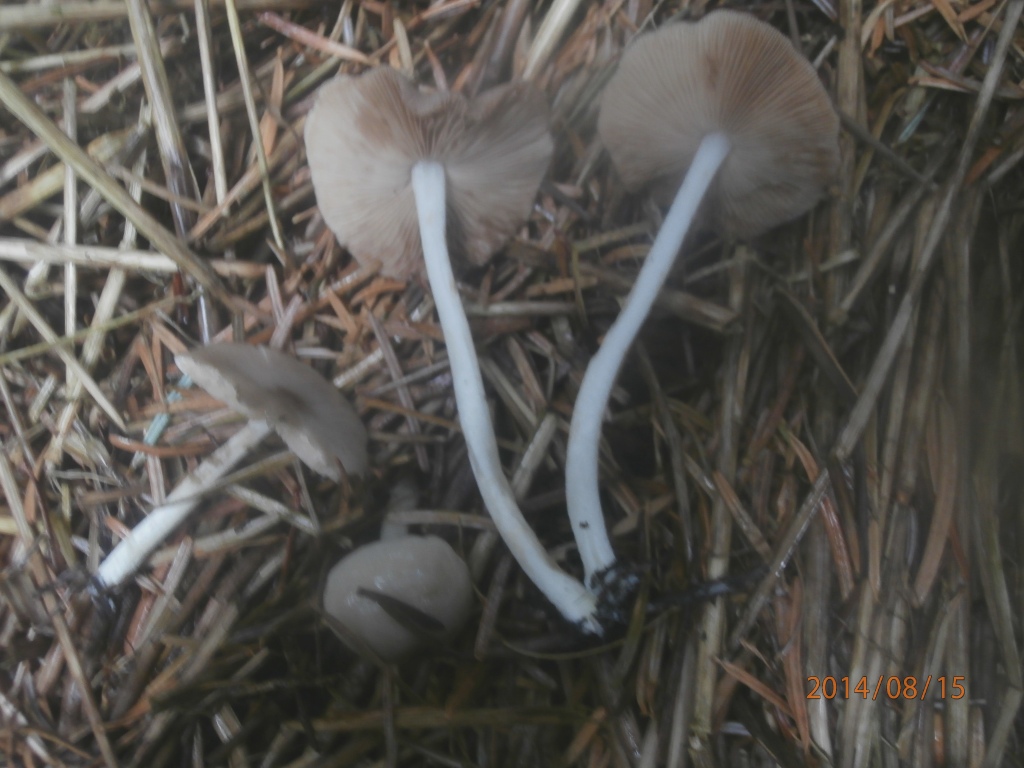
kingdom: Fungi
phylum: Basidiomycota
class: Agaricomycetes
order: Agaricales
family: Bolbitiaceae
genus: Bolbitius
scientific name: Bolbitius demangei
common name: blygrå gulhat
